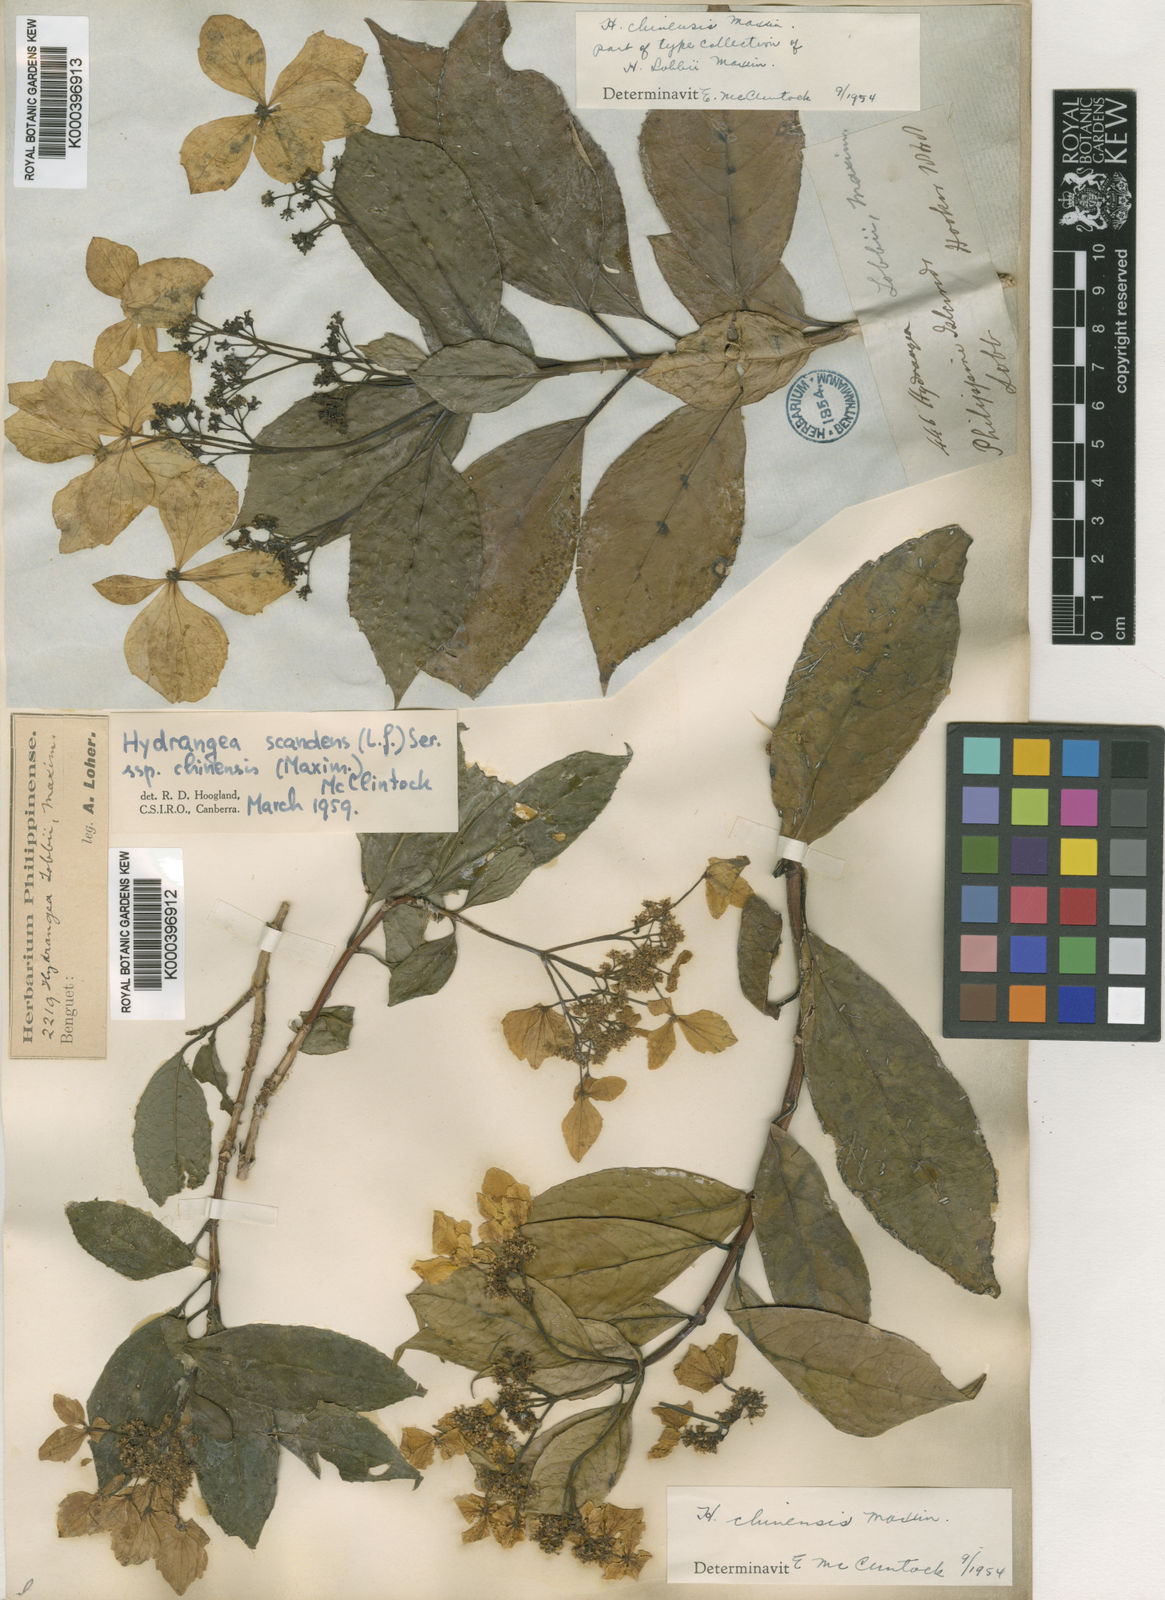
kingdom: Plantae
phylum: Tracheophyta
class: Magnoliopsida
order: Cornales
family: Hydrangeaceae
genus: Hydrangea
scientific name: Hydrangea chinensis
